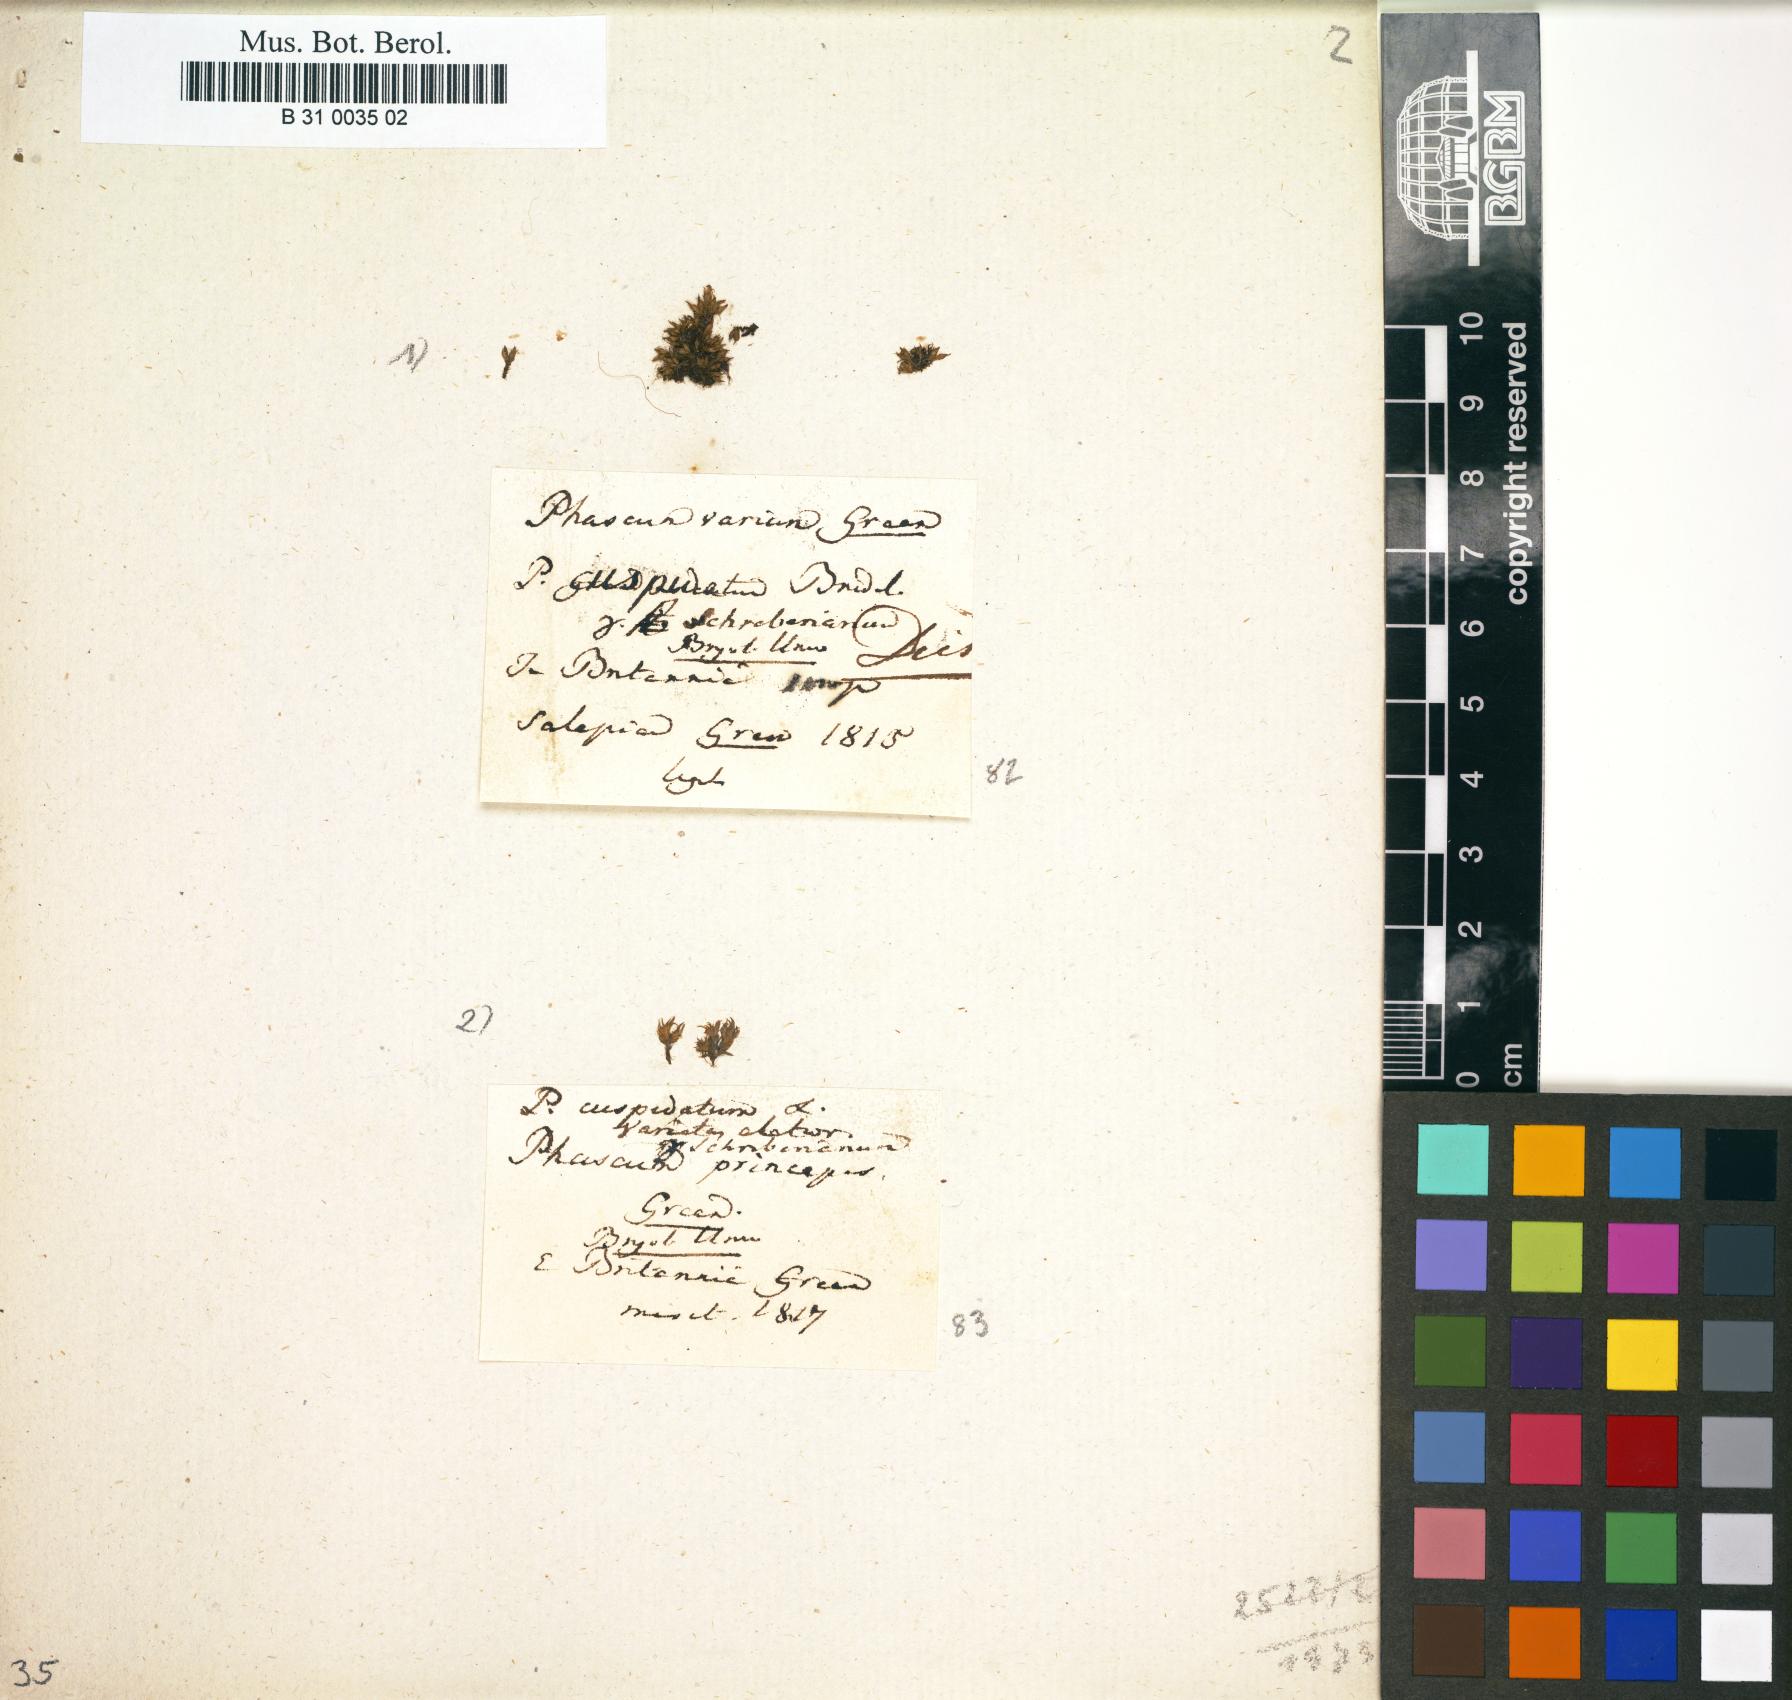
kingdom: Plantae
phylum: Bryophyta
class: Bryopsida
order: Pottiales
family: Pottiaceae
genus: Tortula
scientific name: Tortula acaulon
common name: Cuspidate earth moss
